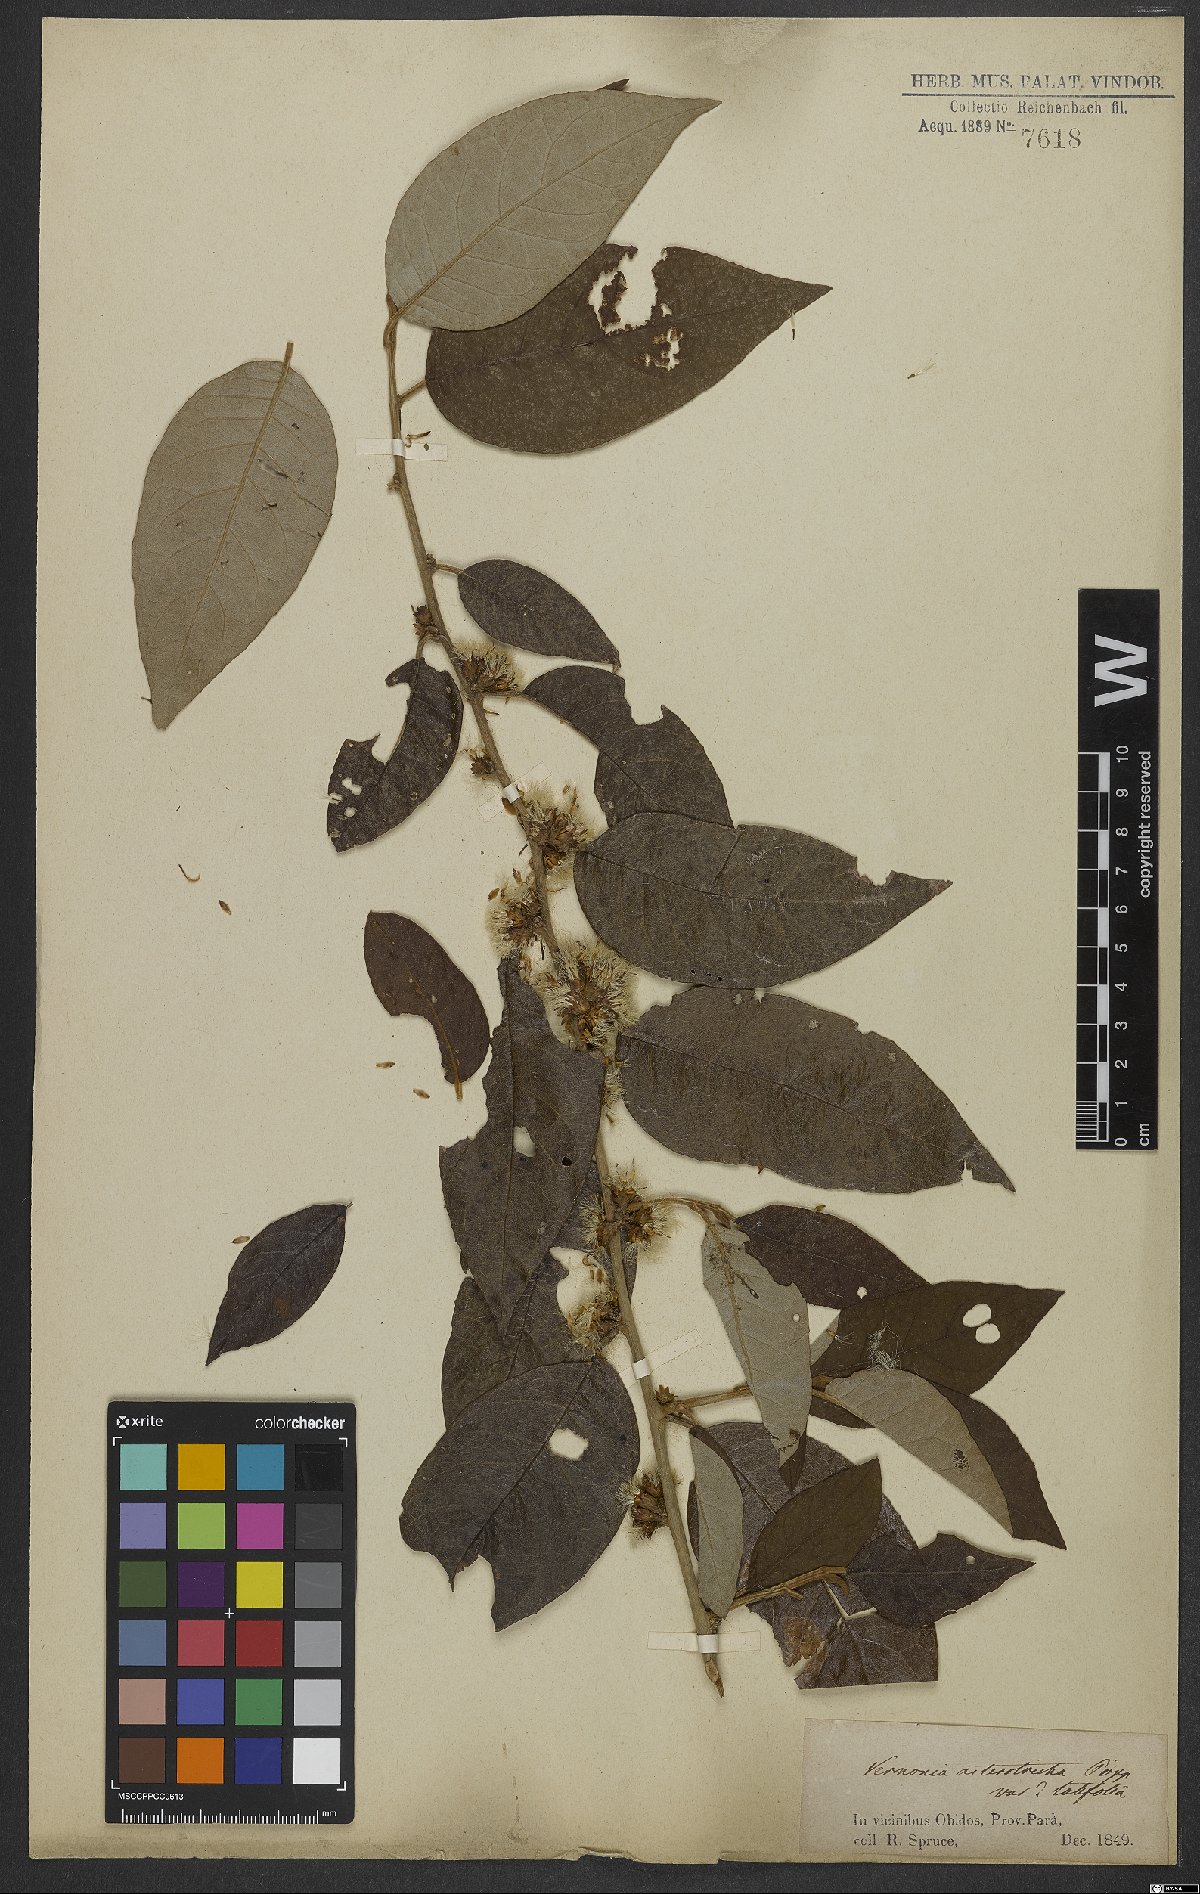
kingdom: Plantae
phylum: Tracheophyta
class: Magnoliopsida
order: Asterales
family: Asteraceae
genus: Piptocarpha
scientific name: Piptocarpha asterotrichia
